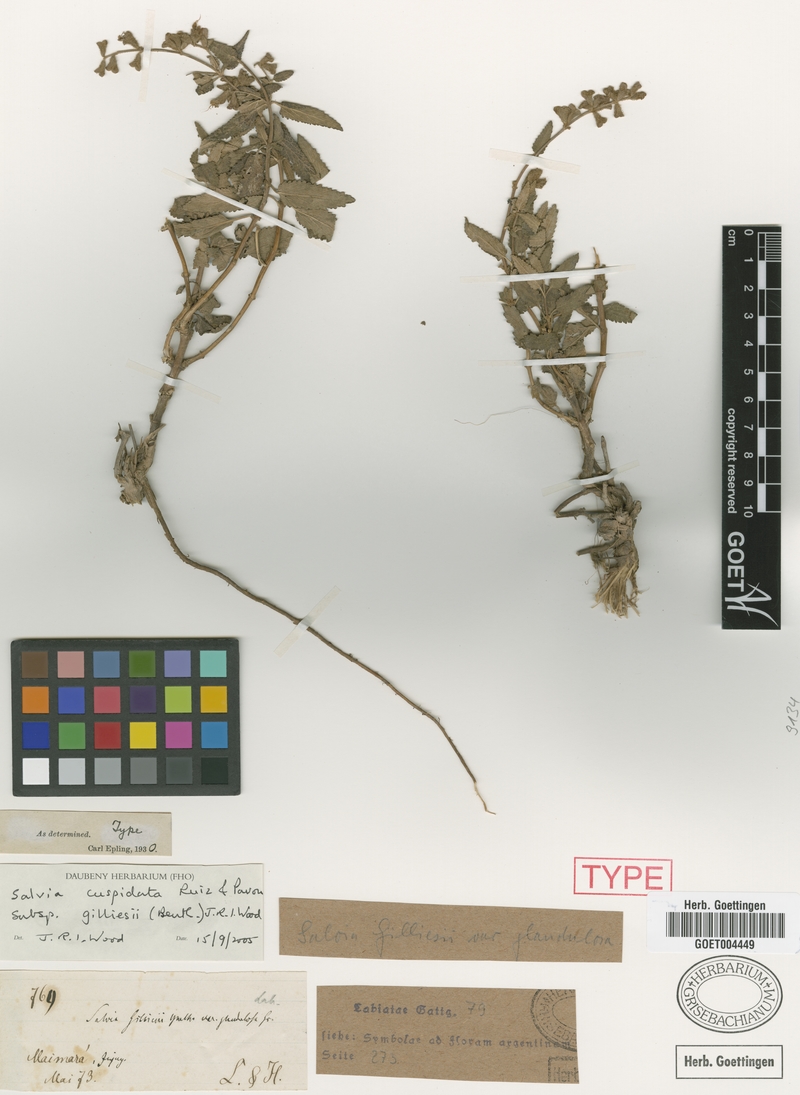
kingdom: Plantae
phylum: Tracheophyta
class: Magnoliopsida
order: Lamiales
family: Lamiaceae
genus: Salvia
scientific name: Salvia cuspidata
